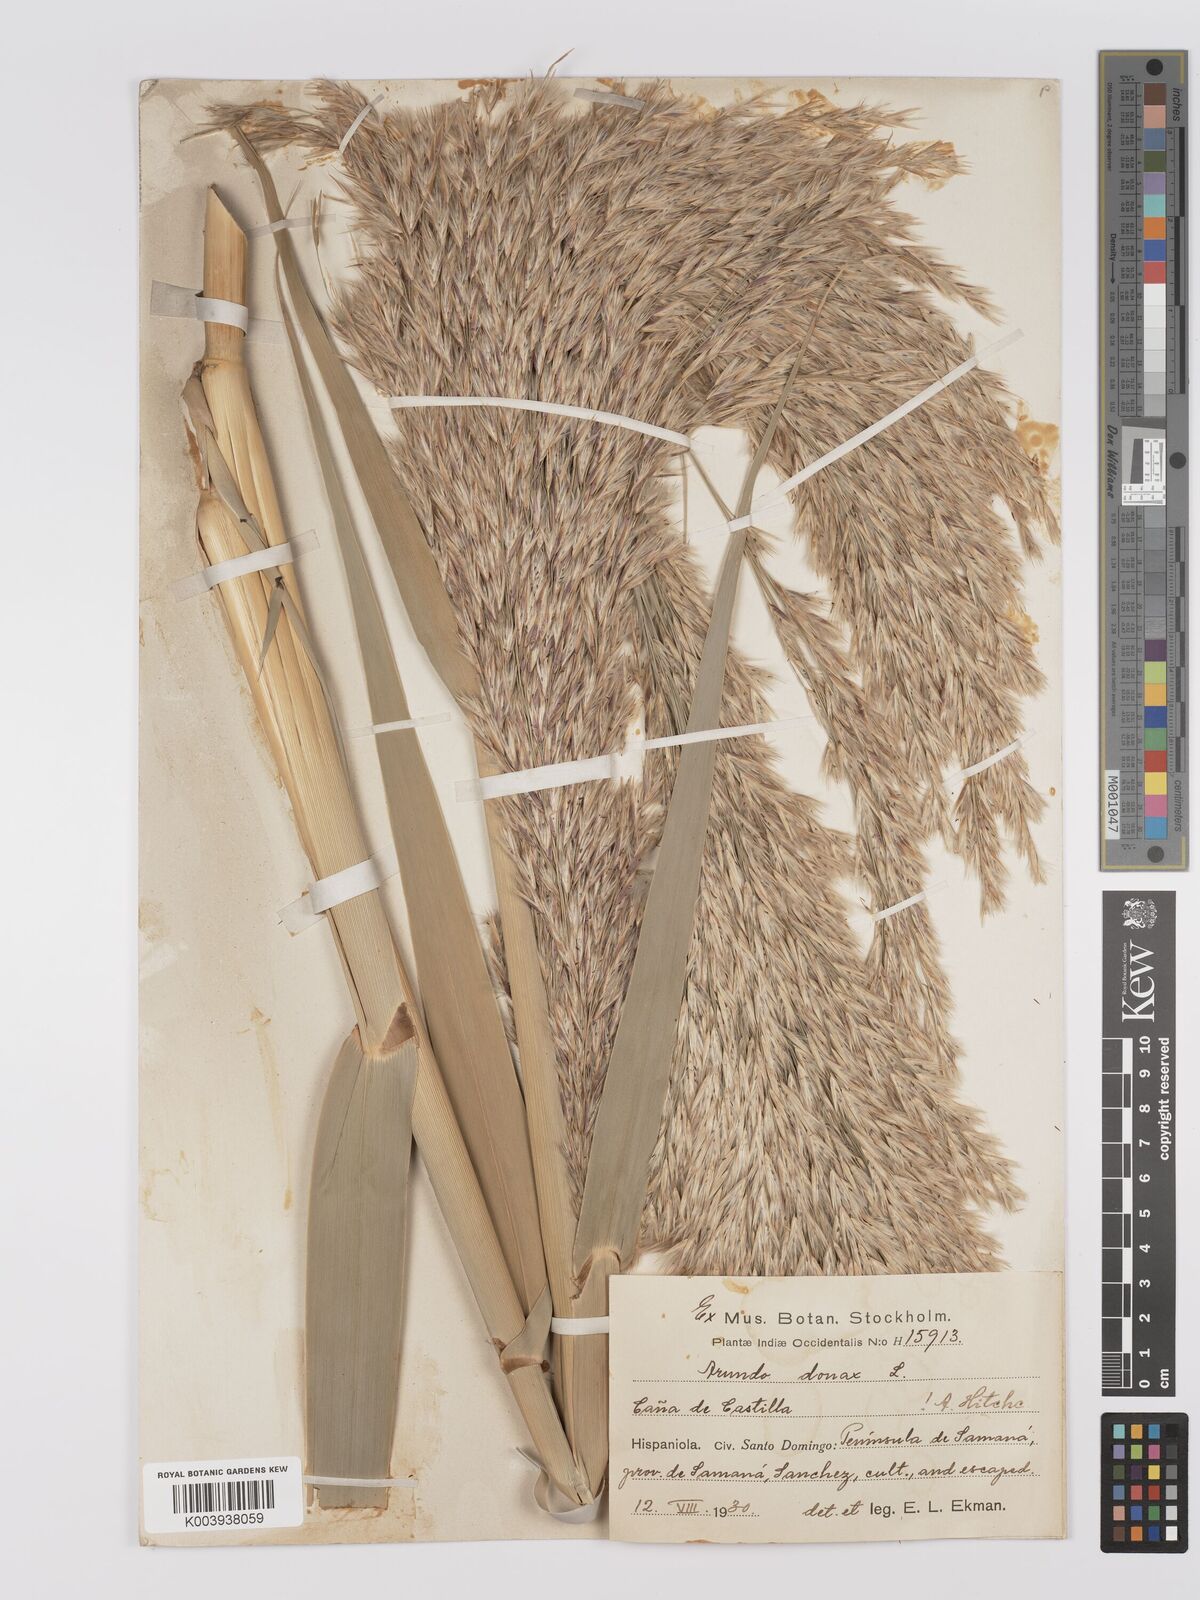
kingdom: Plantae
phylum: Tracheophyta
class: Liliopsida
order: Poales
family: Poaceae
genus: Arundo
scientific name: Arundo donax
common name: Giant reed
